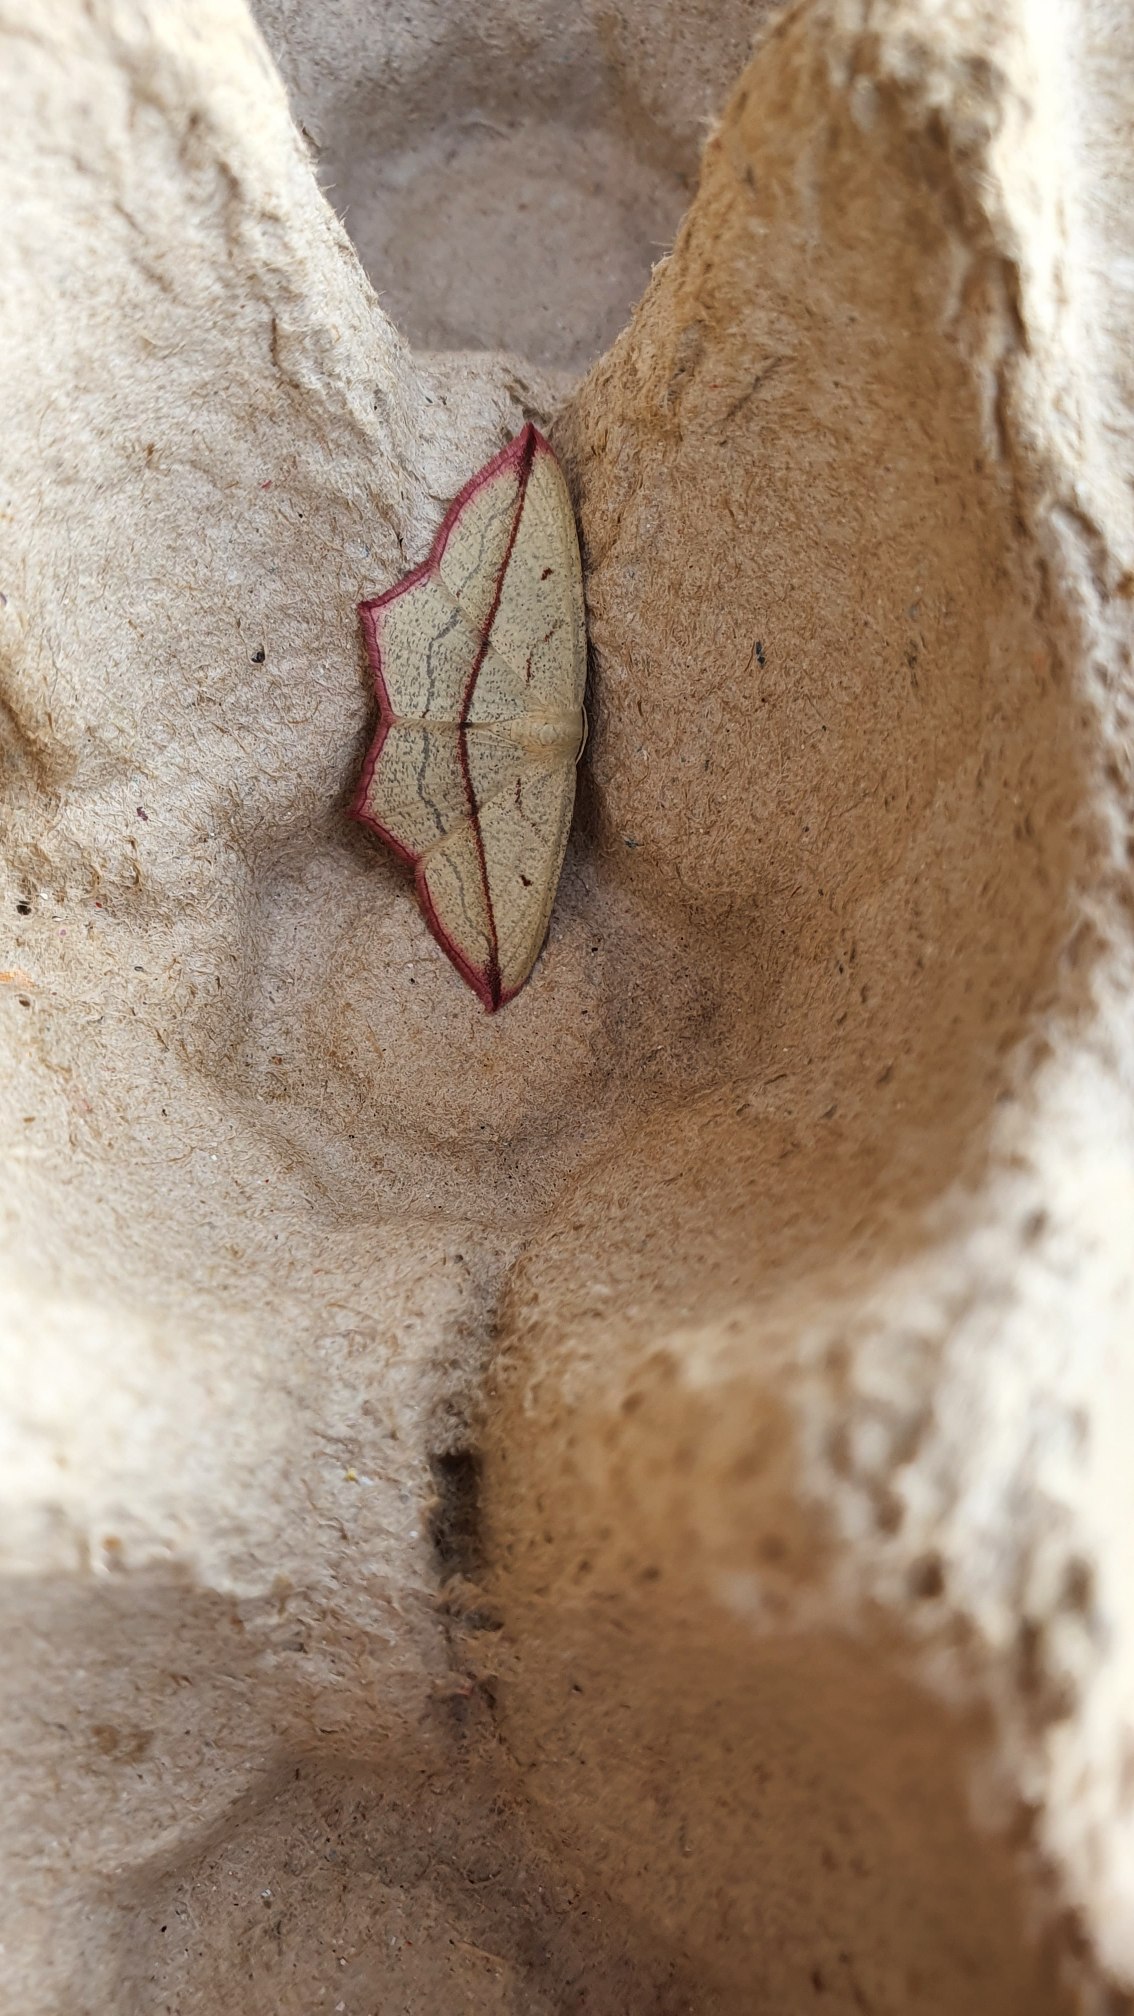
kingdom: Animalia
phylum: Arthropoda
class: Insecta
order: Lepidoptera
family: Geometridae
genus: Timandra
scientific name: Timandra comae
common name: Gul syremåler
